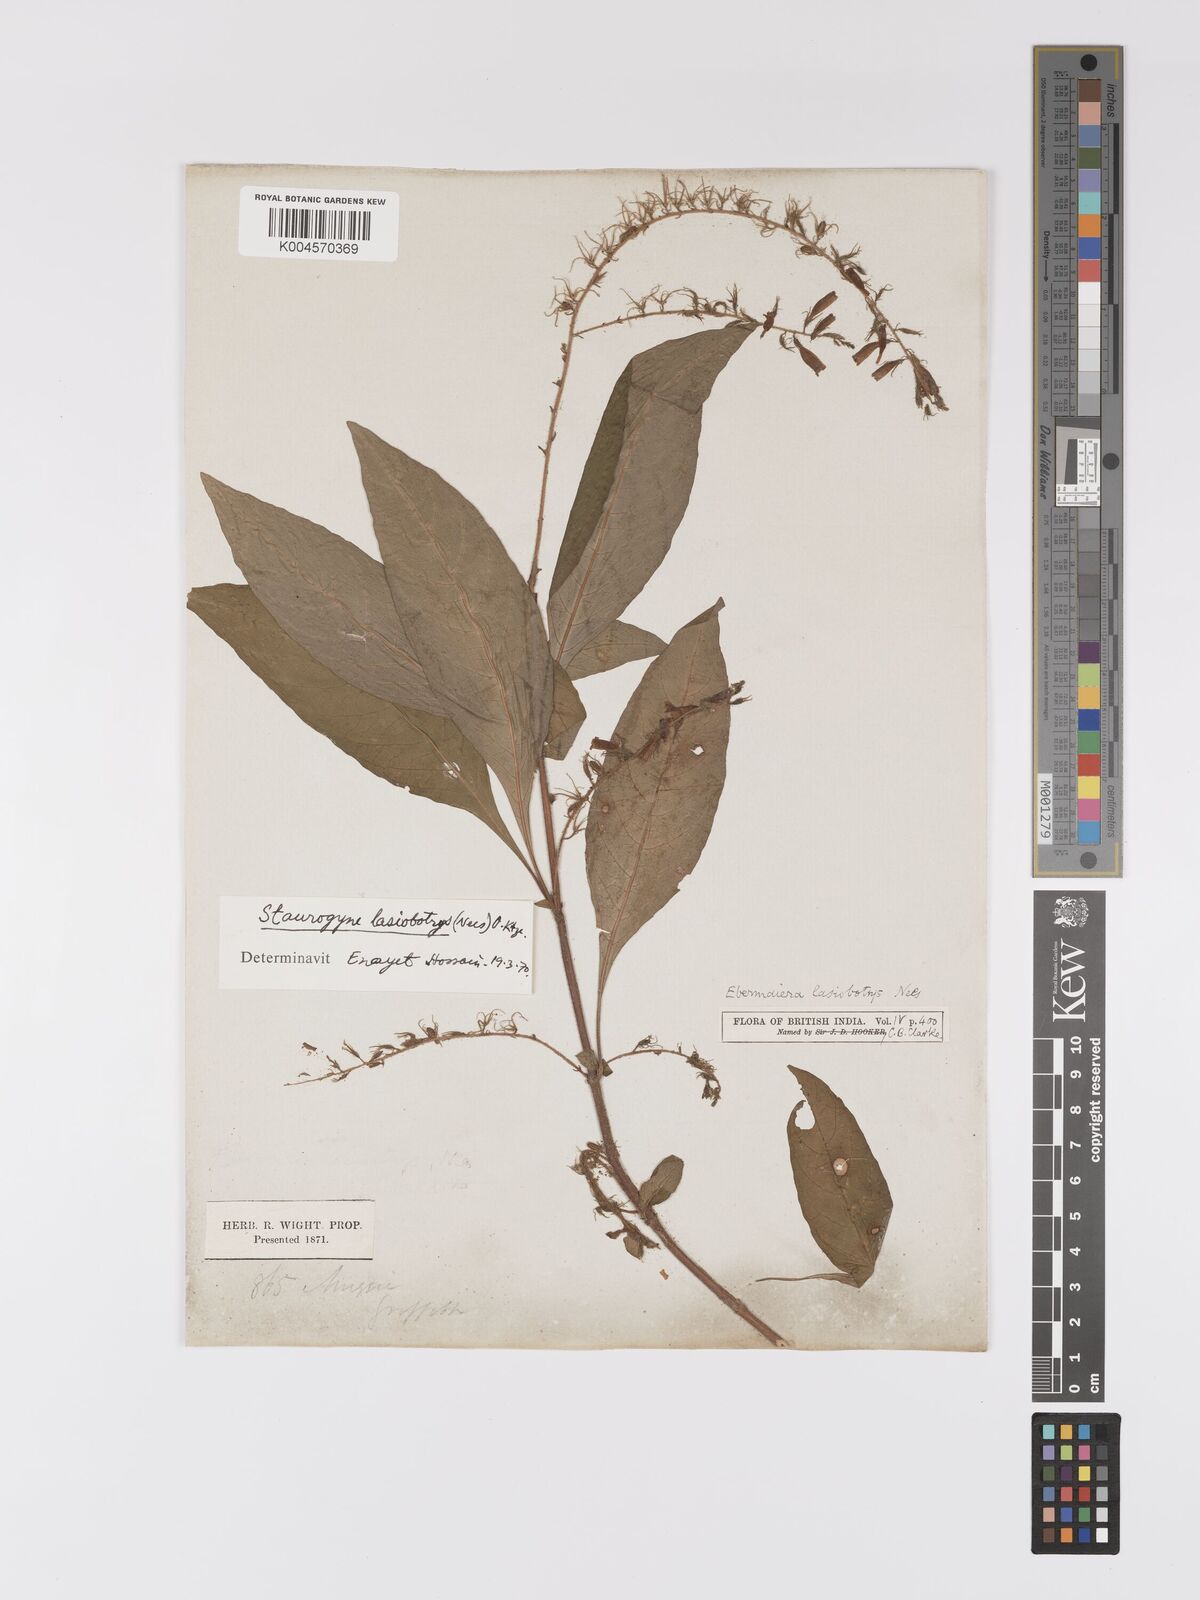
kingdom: Plantae
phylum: Tracheophyta
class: Magnoliopsida
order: Lamiales
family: Acanthaceae
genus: Staurogyne
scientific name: Staurogyne lasiobotrys
